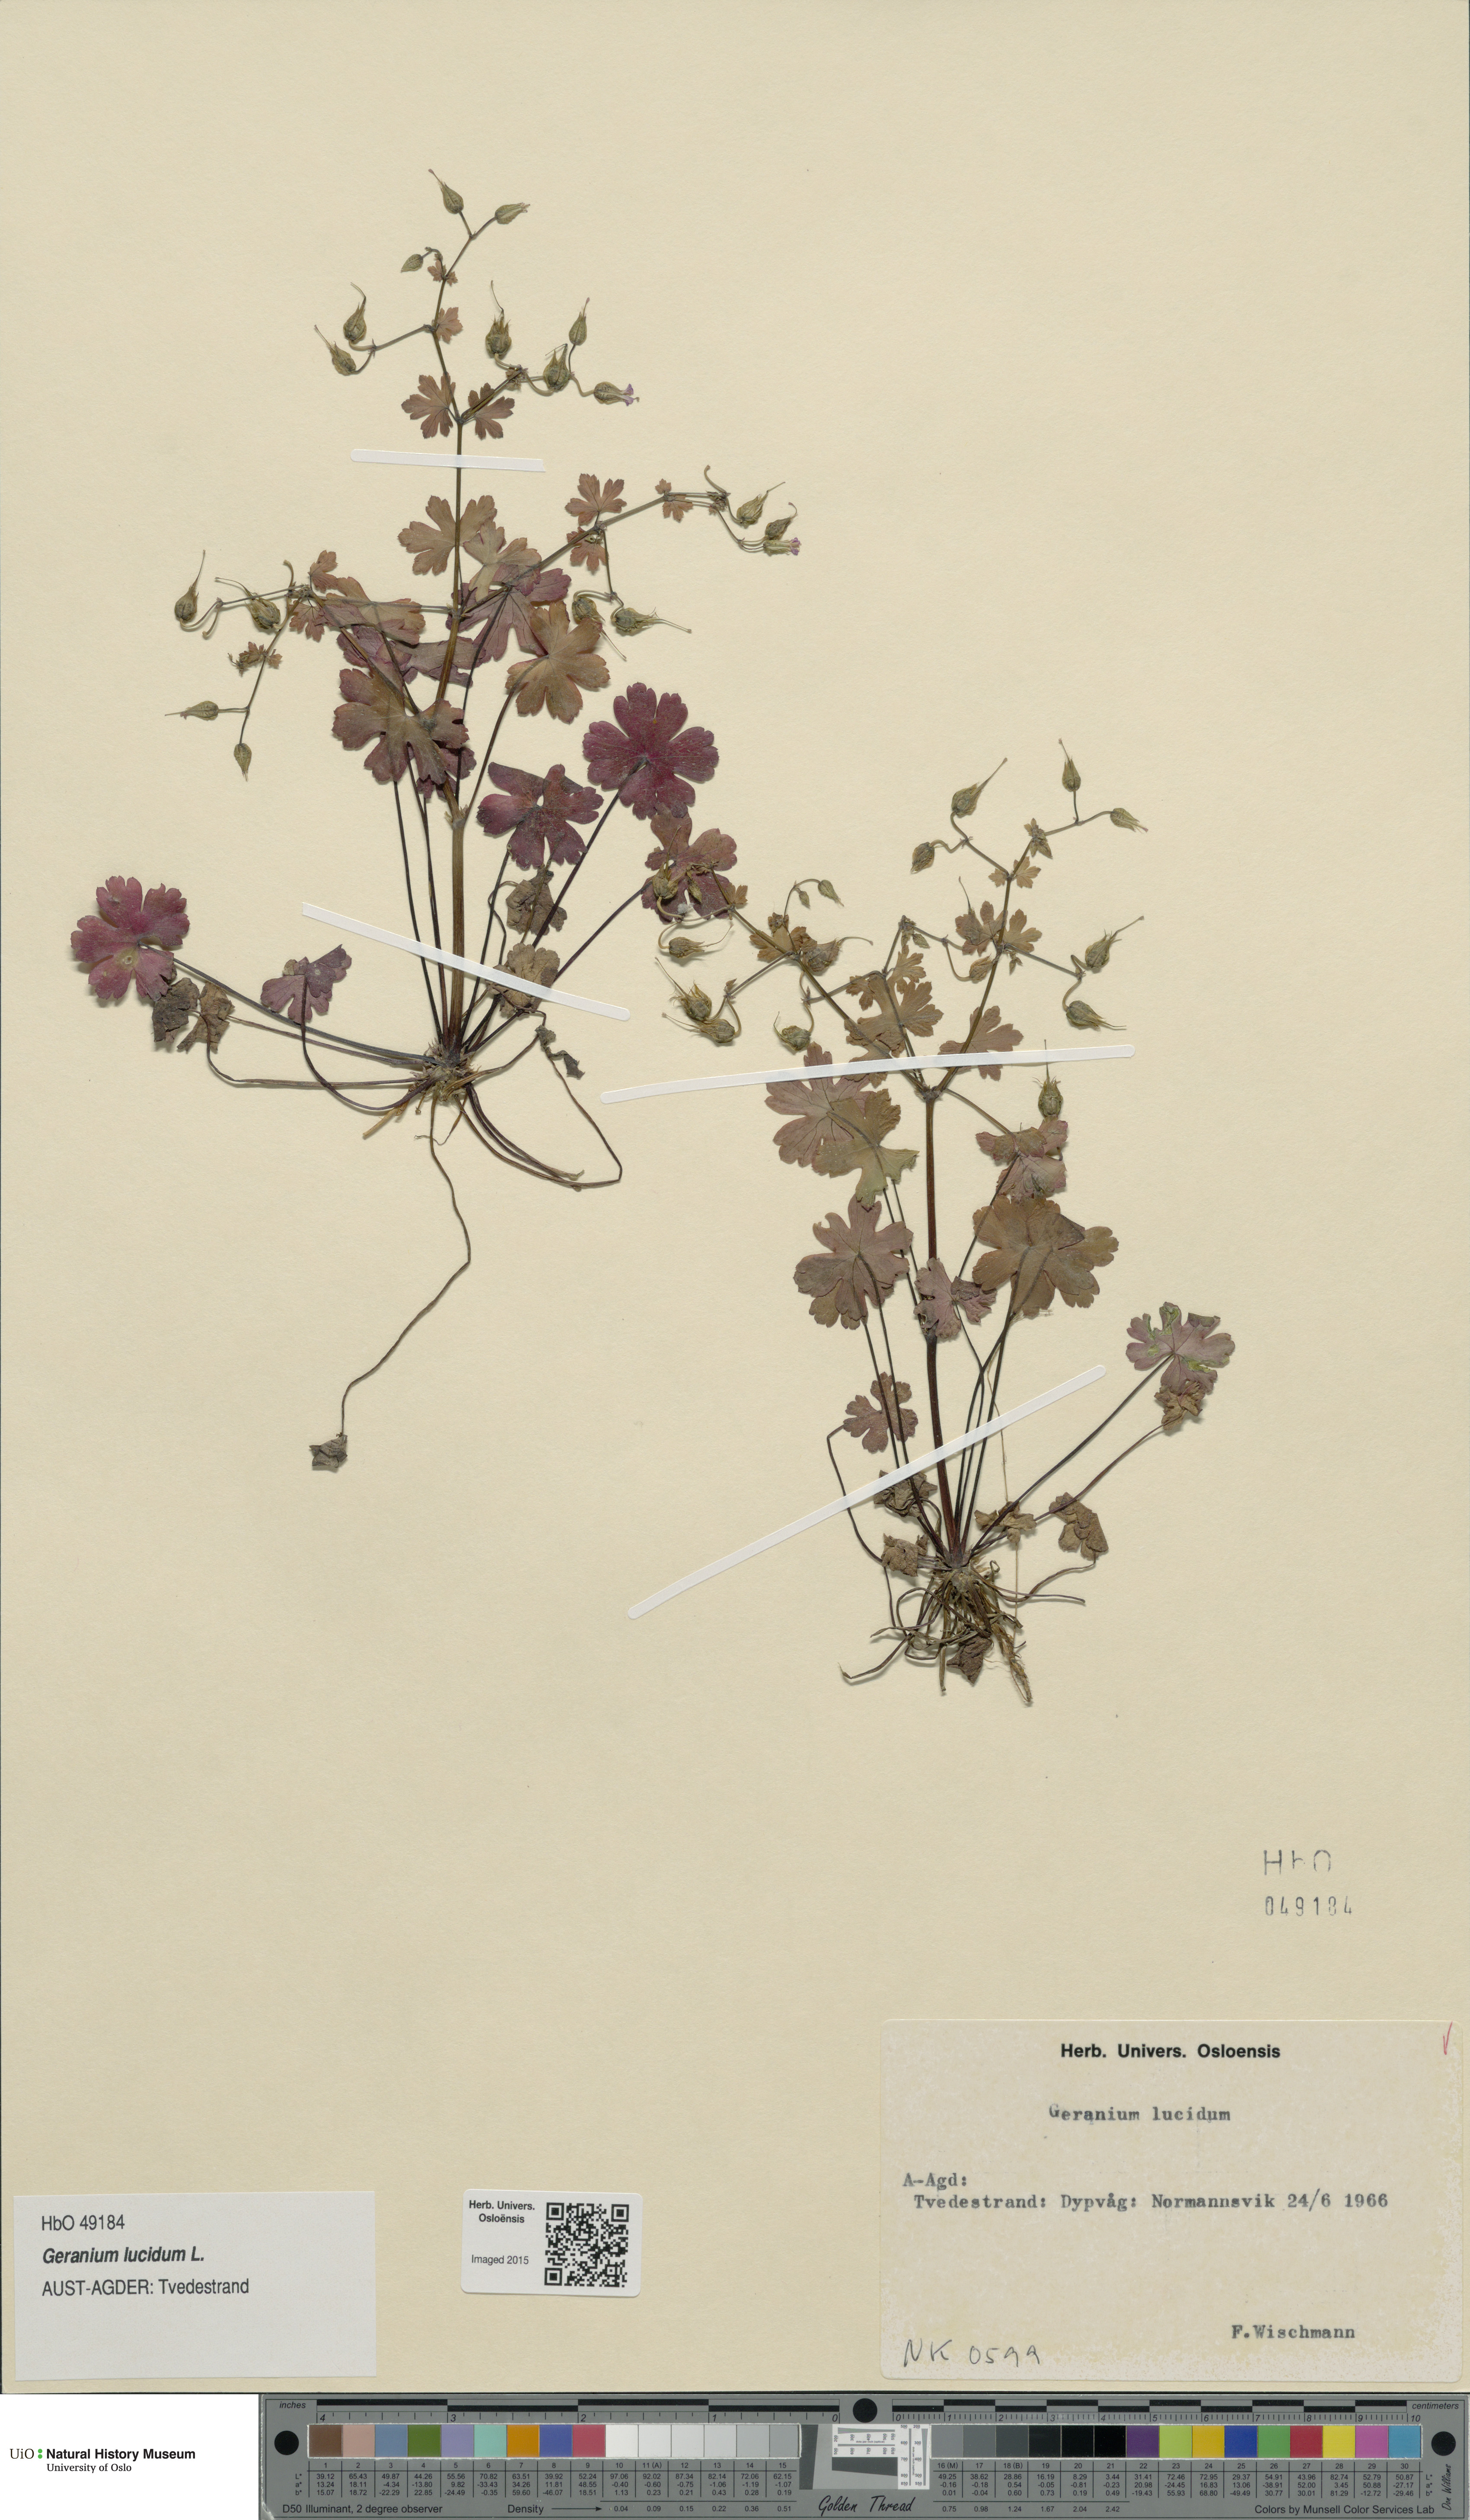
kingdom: Plantae
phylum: Tracheophyta
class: Magnoliopsida
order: Geraniales
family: Geraniaceae
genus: Geranium
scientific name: Geranium lucidum
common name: Shining crane's-bill
